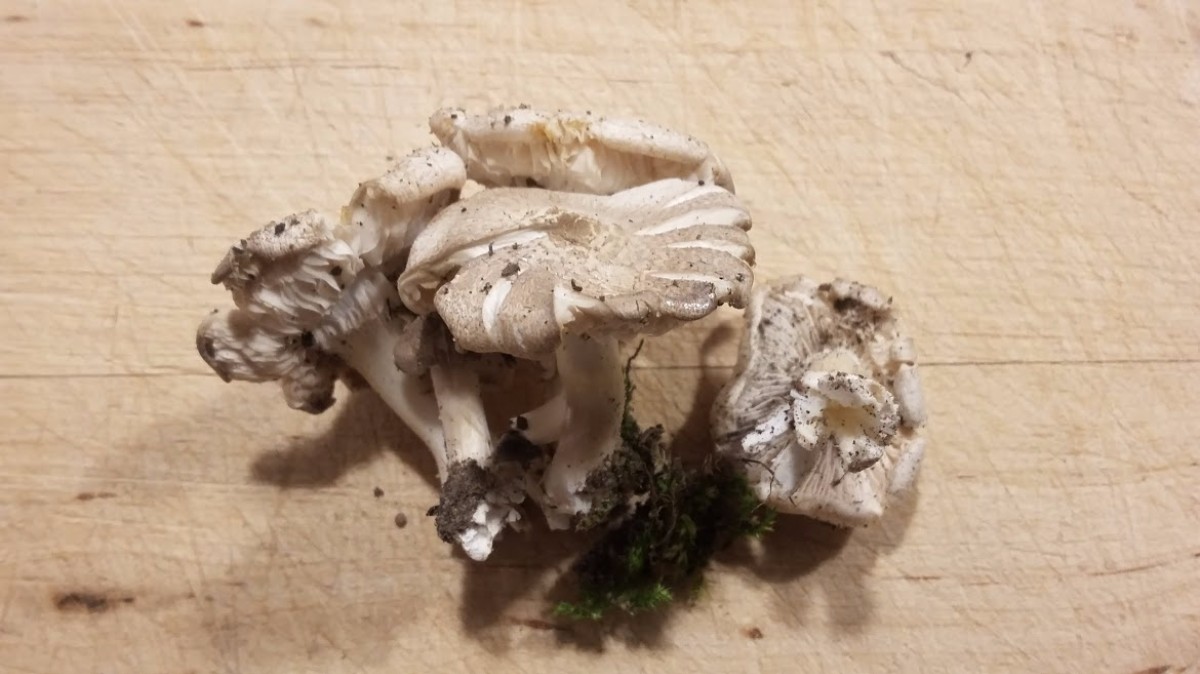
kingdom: Fungi
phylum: Basidiomycota
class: Agaricomycetes
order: Agaricales
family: Tricholomataceae
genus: Tricholoma
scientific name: Tricholoma scalpturatum
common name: gulplettet ridderhat
